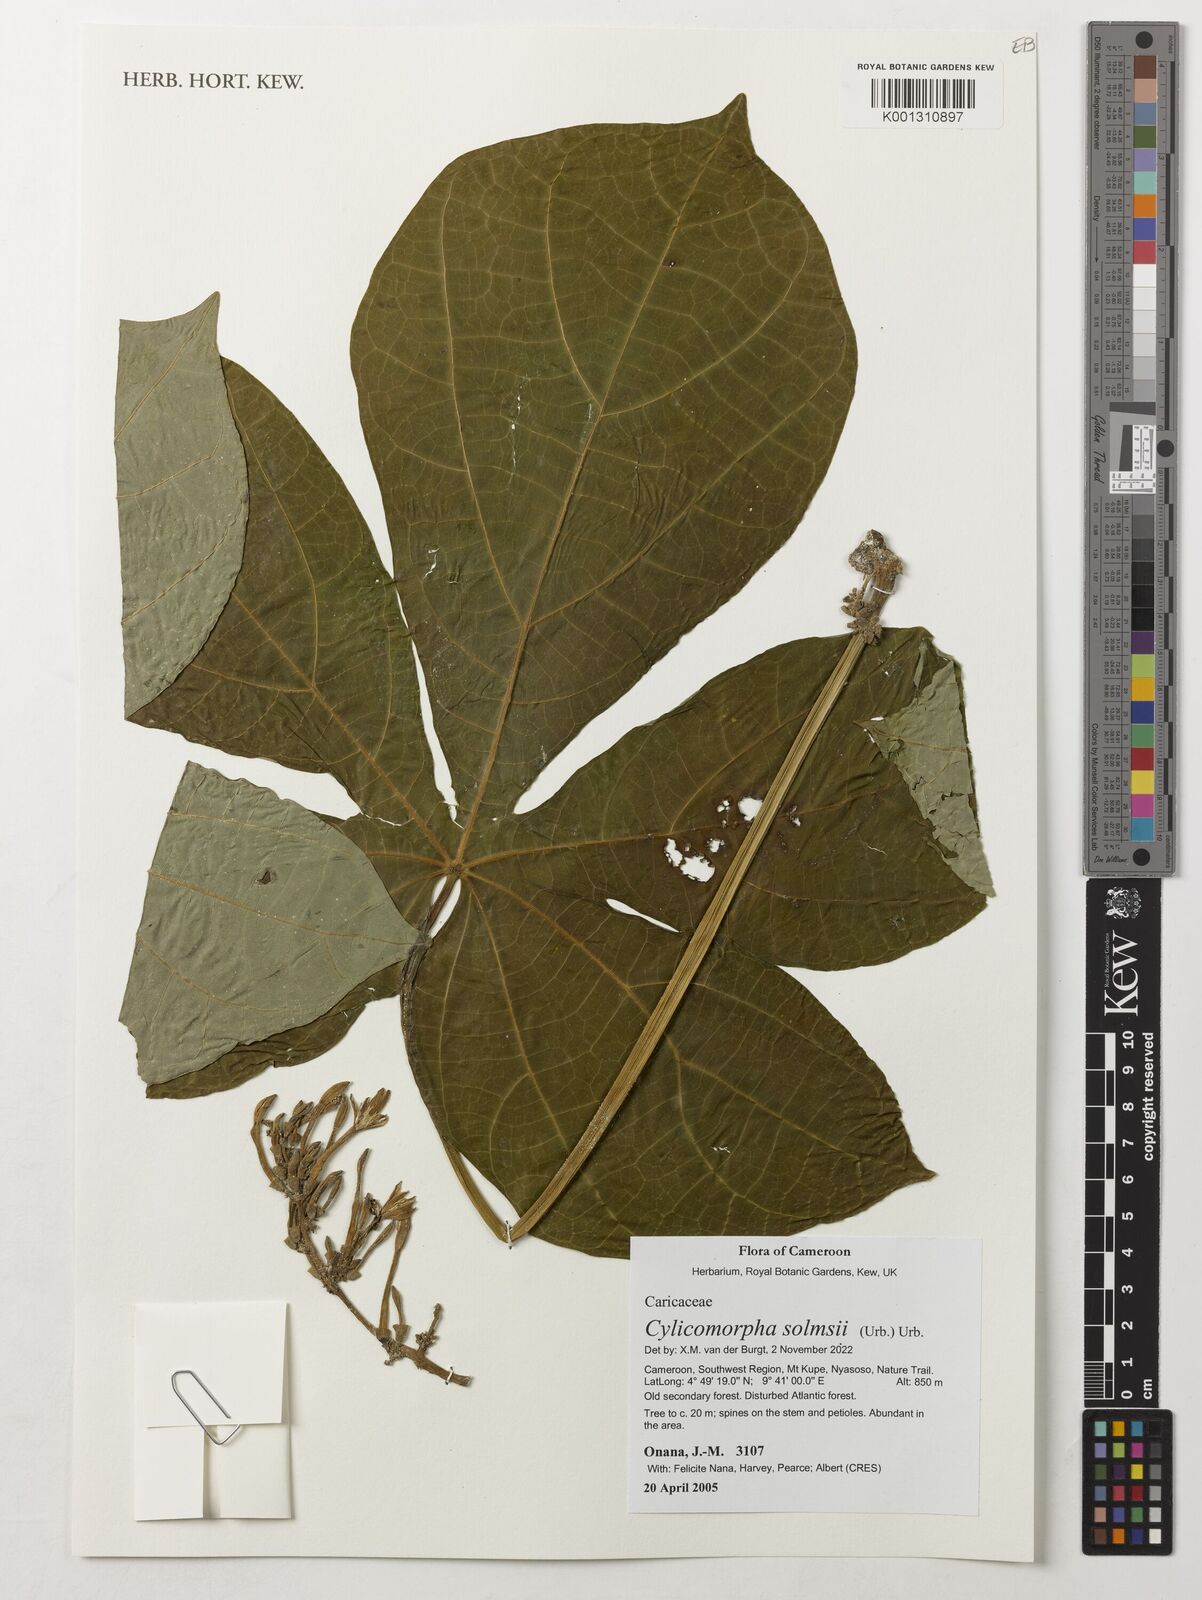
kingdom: Plantae
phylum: Tracheophyta
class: Magnoliopsida
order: Brassicales
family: Caricaceae
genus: Cylicomorpha
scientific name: Cylicomorpha solmsii
